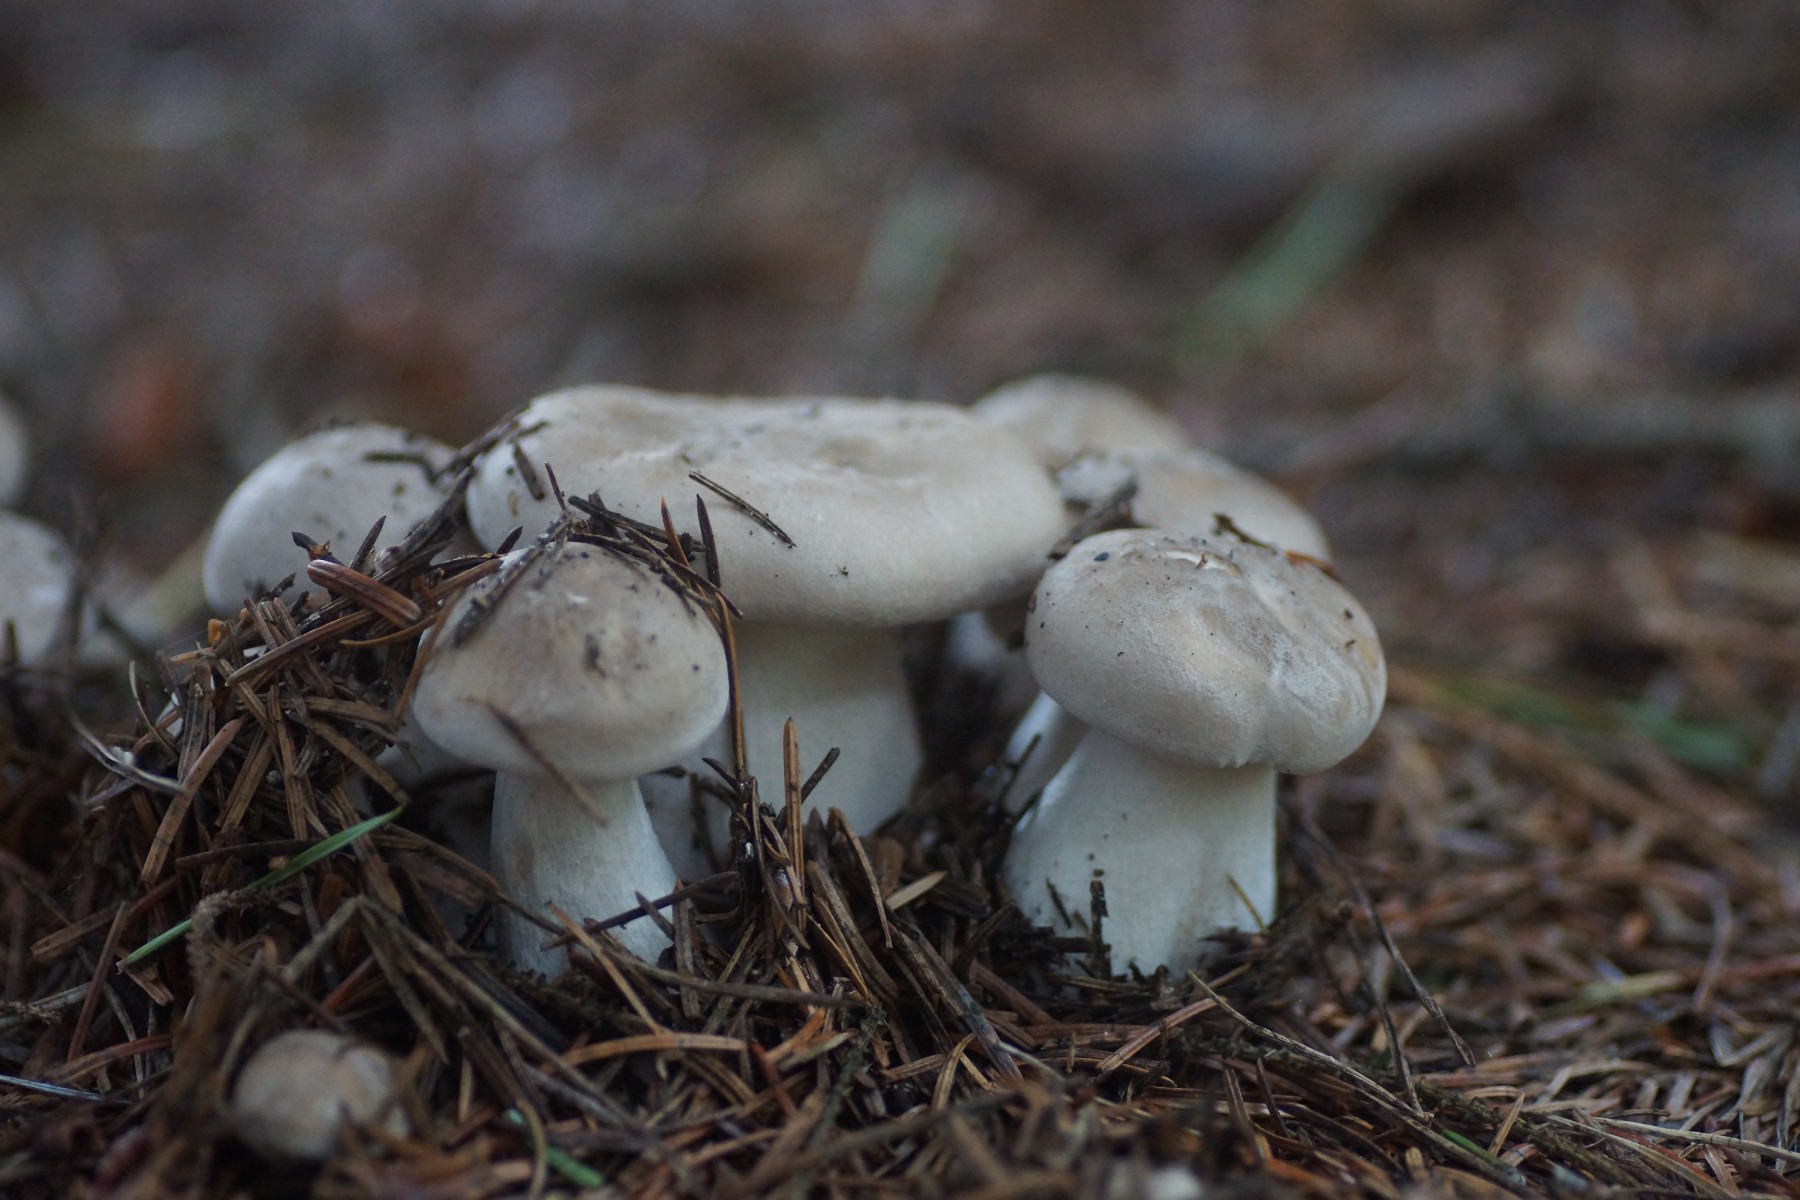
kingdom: Fungi
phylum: Basidiomycota
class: Agaricomycetes
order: Agaricales
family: Tricholomataceae
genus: Clitocybe
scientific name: Clitocybe nebularis
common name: tåge-tragthat
